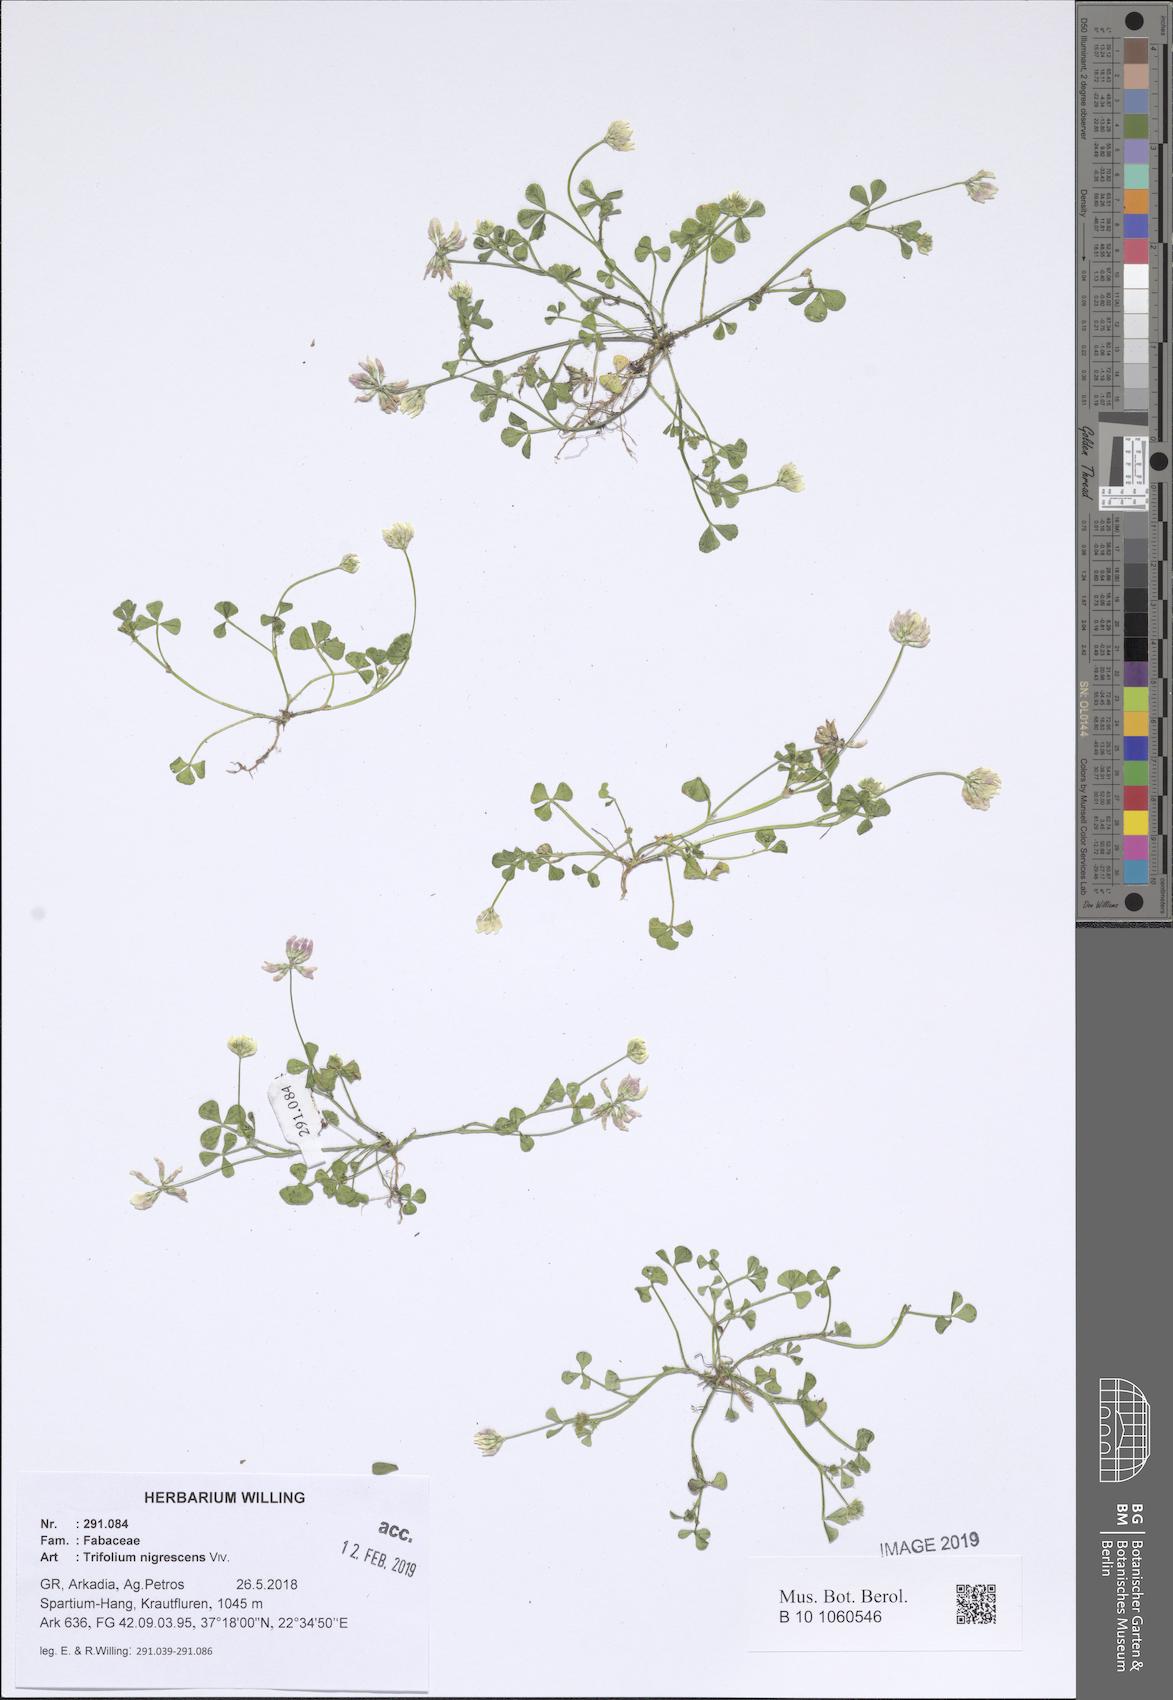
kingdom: Plantae
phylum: Tracheophyta
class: Magnoliopsida
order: Fabales
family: Fabaceae
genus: Trifolium
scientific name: Trifolium nigrescens
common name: Small white clover
